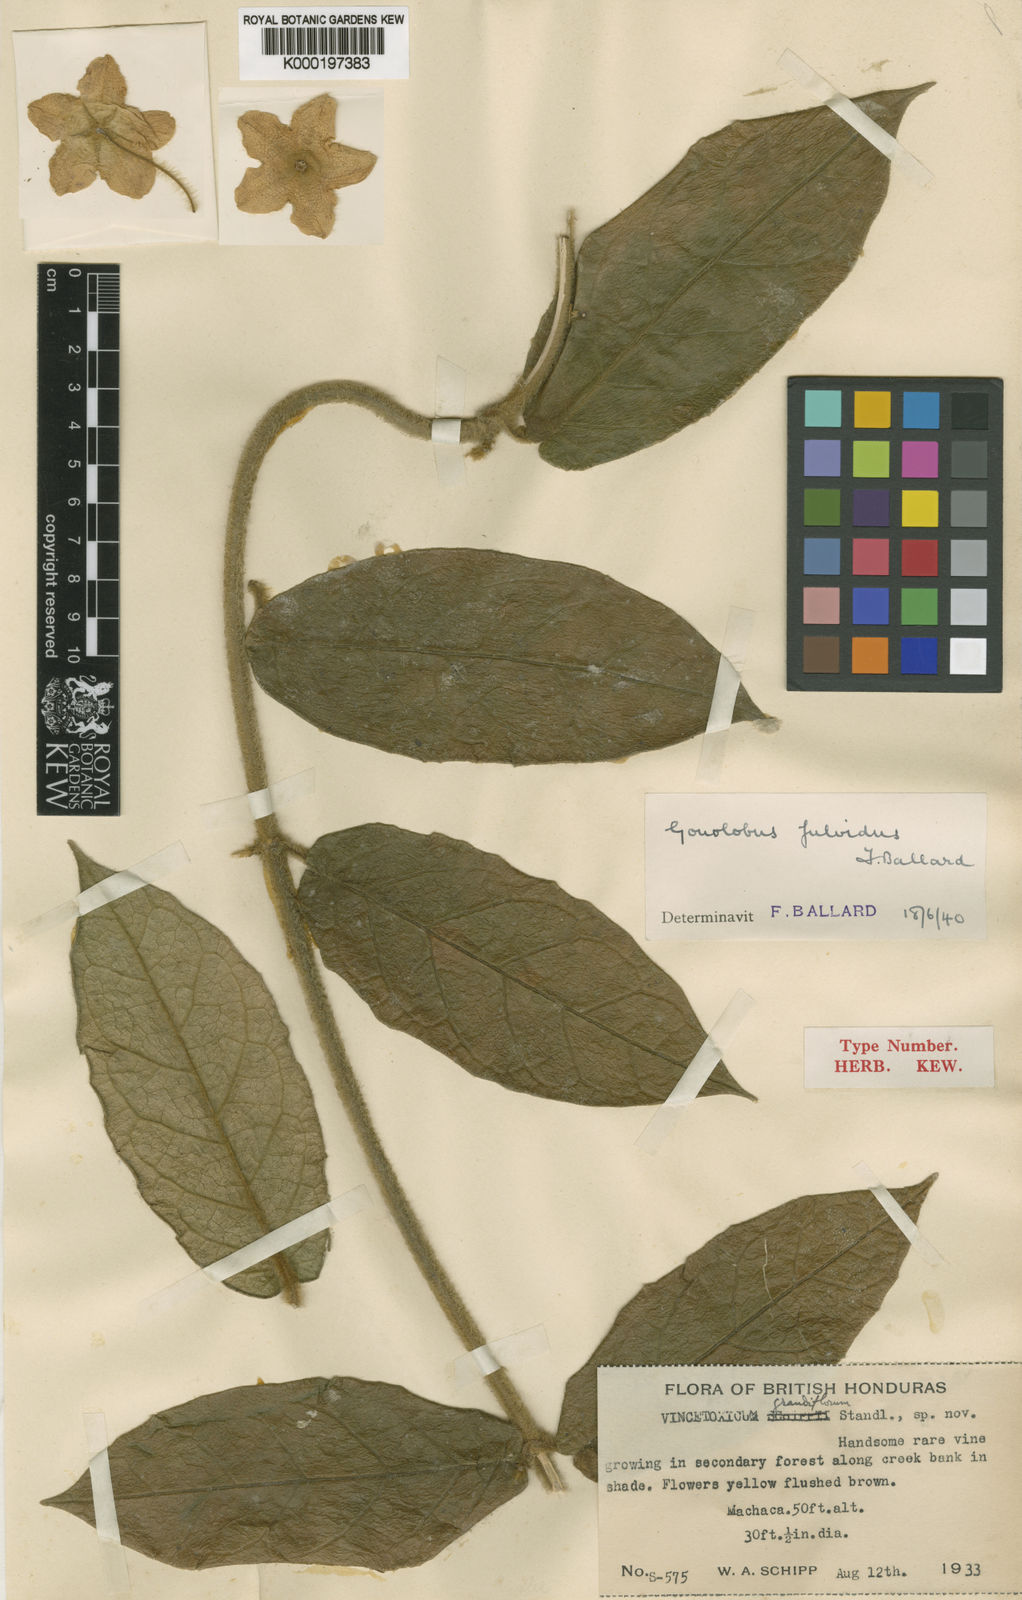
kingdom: Plantae
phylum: Tracheophyta
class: Magnoliopsida
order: Gentianales
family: Apocynaceae
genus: Rotundanthus
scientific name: Rotundanthus fulvidus
